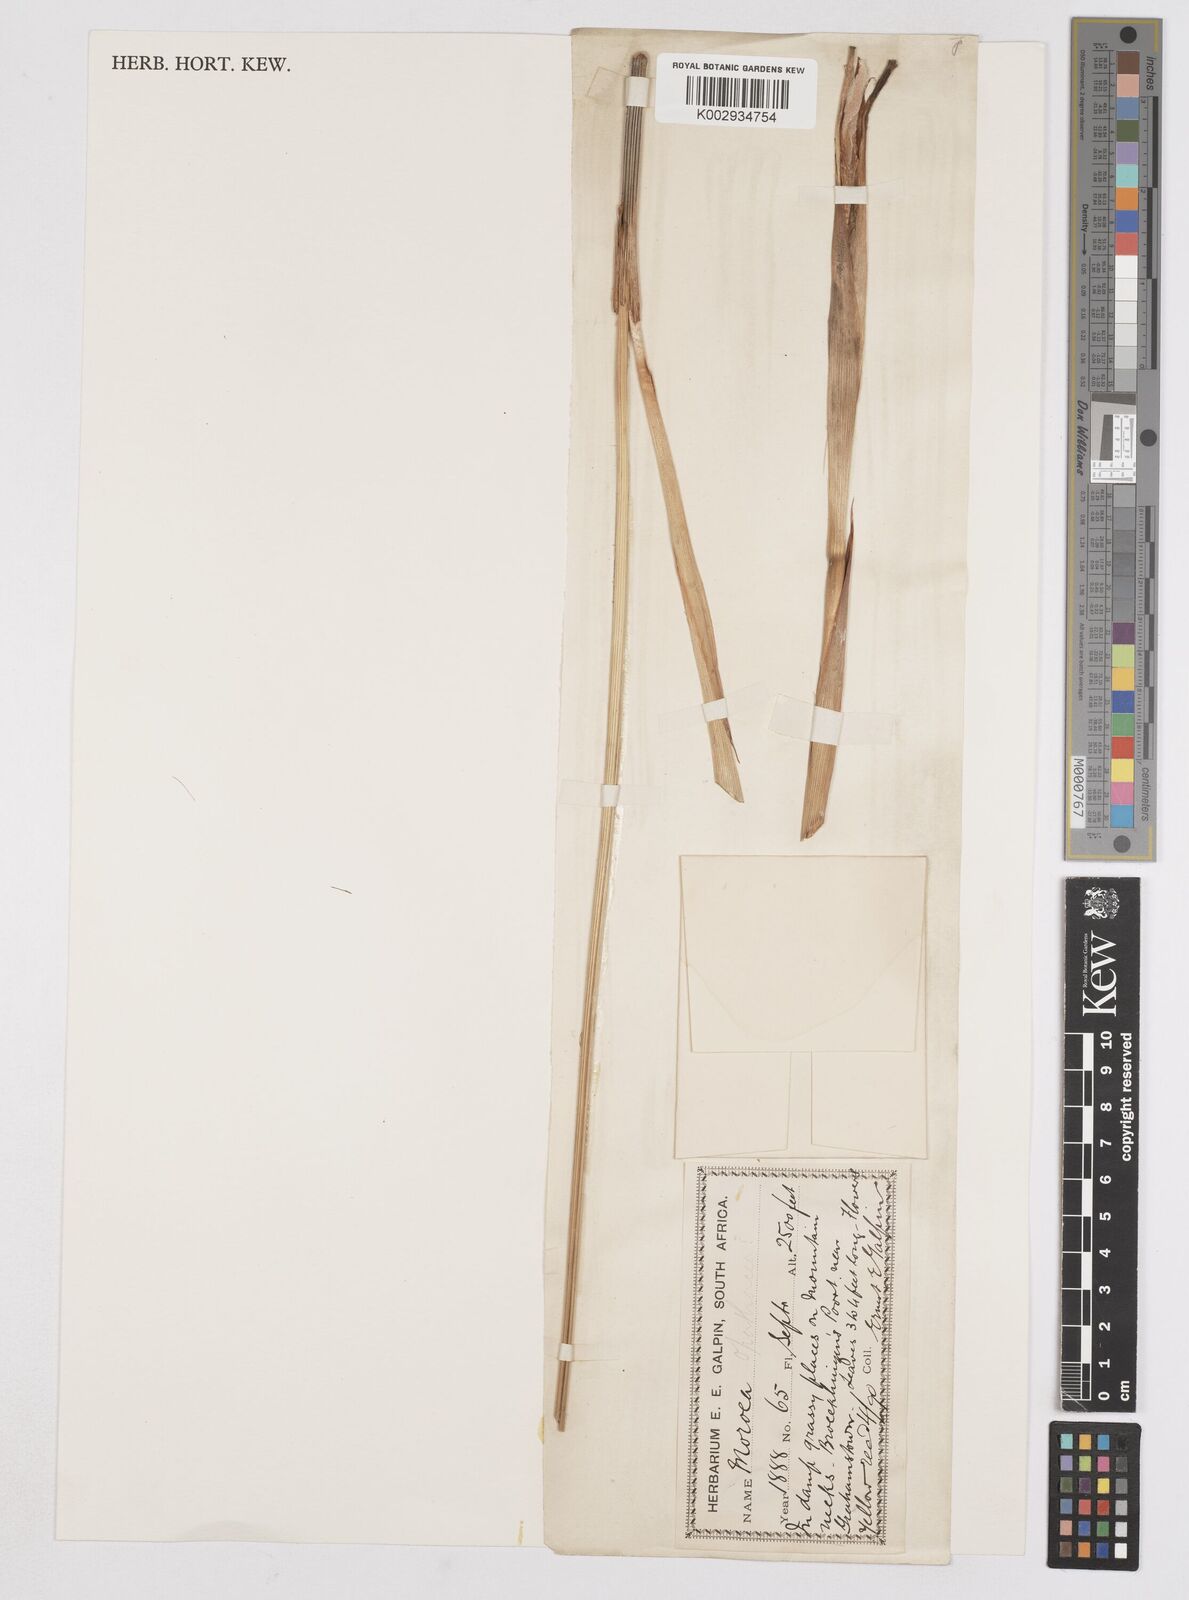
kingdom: Plantae
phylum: Tracheophyta
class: Liliopsida
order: Asparagales
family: Iridaceae
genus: Moraea
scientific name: Moraea spathulata
